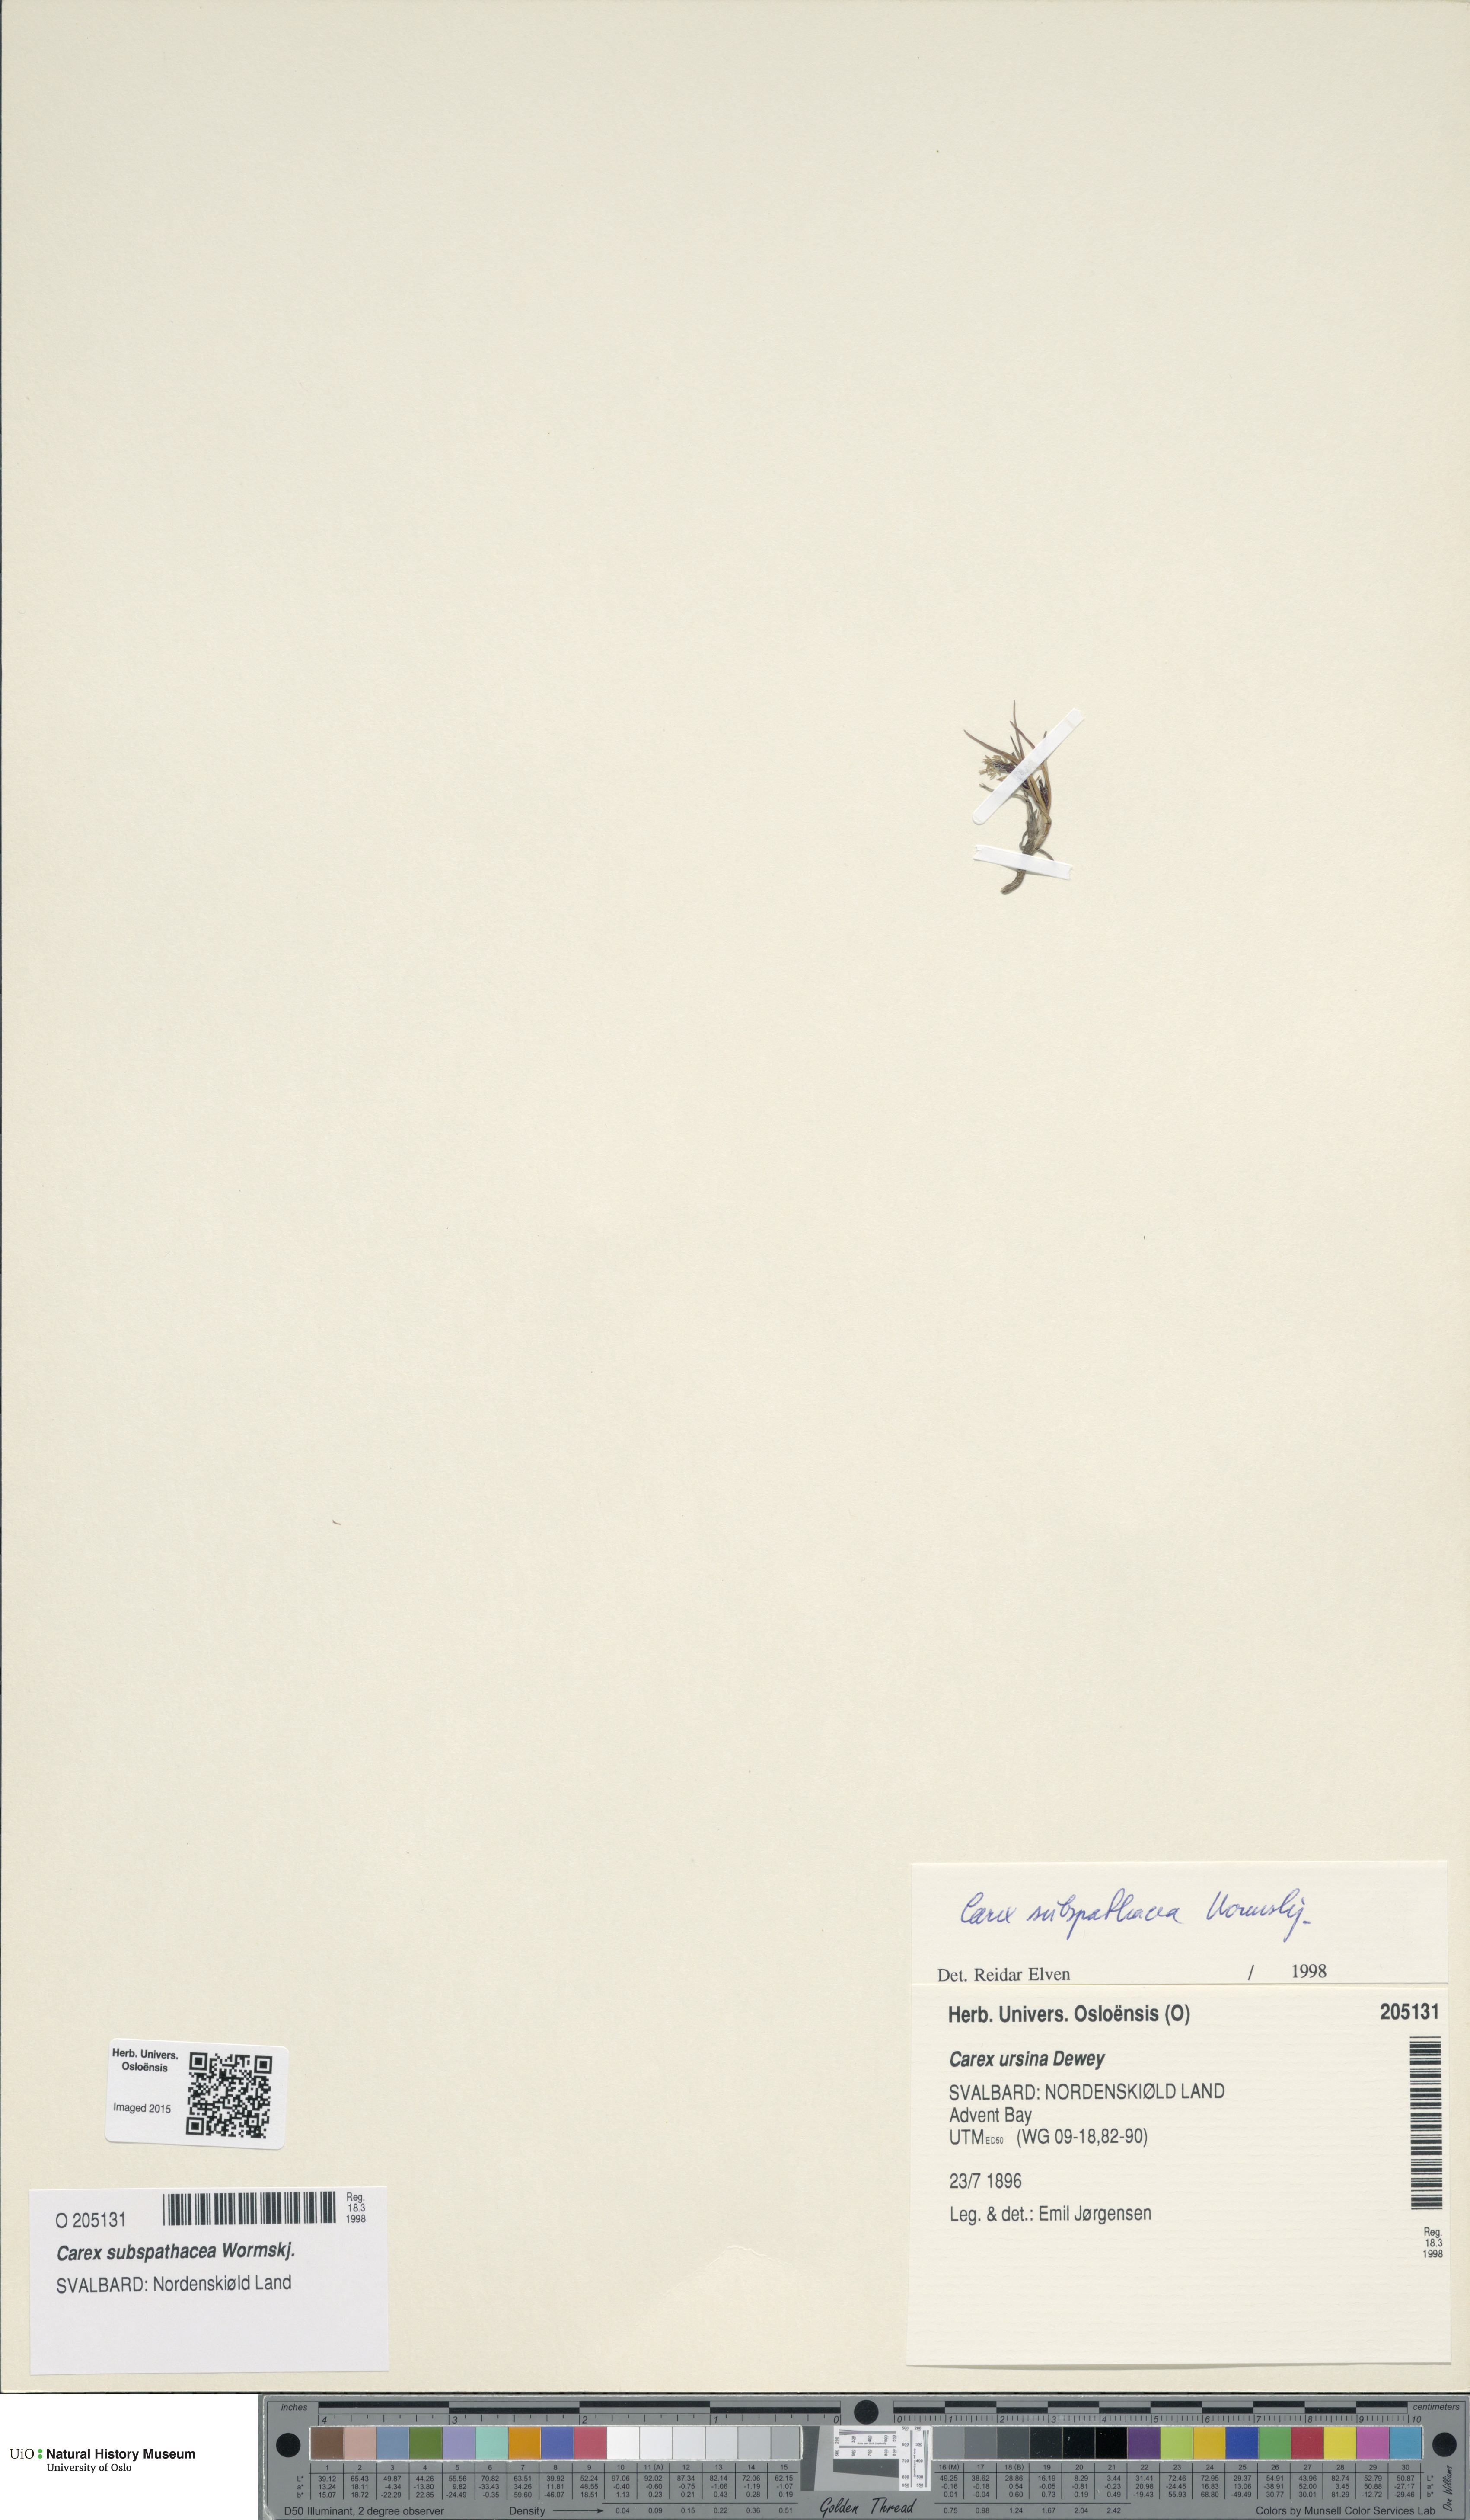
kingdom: Plantae
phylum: Tracheophyta
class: Liliopsida
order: Poales
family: Cyperaceae
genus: Carex
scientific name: Carex subspathacea
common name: Hoppner's sedge
